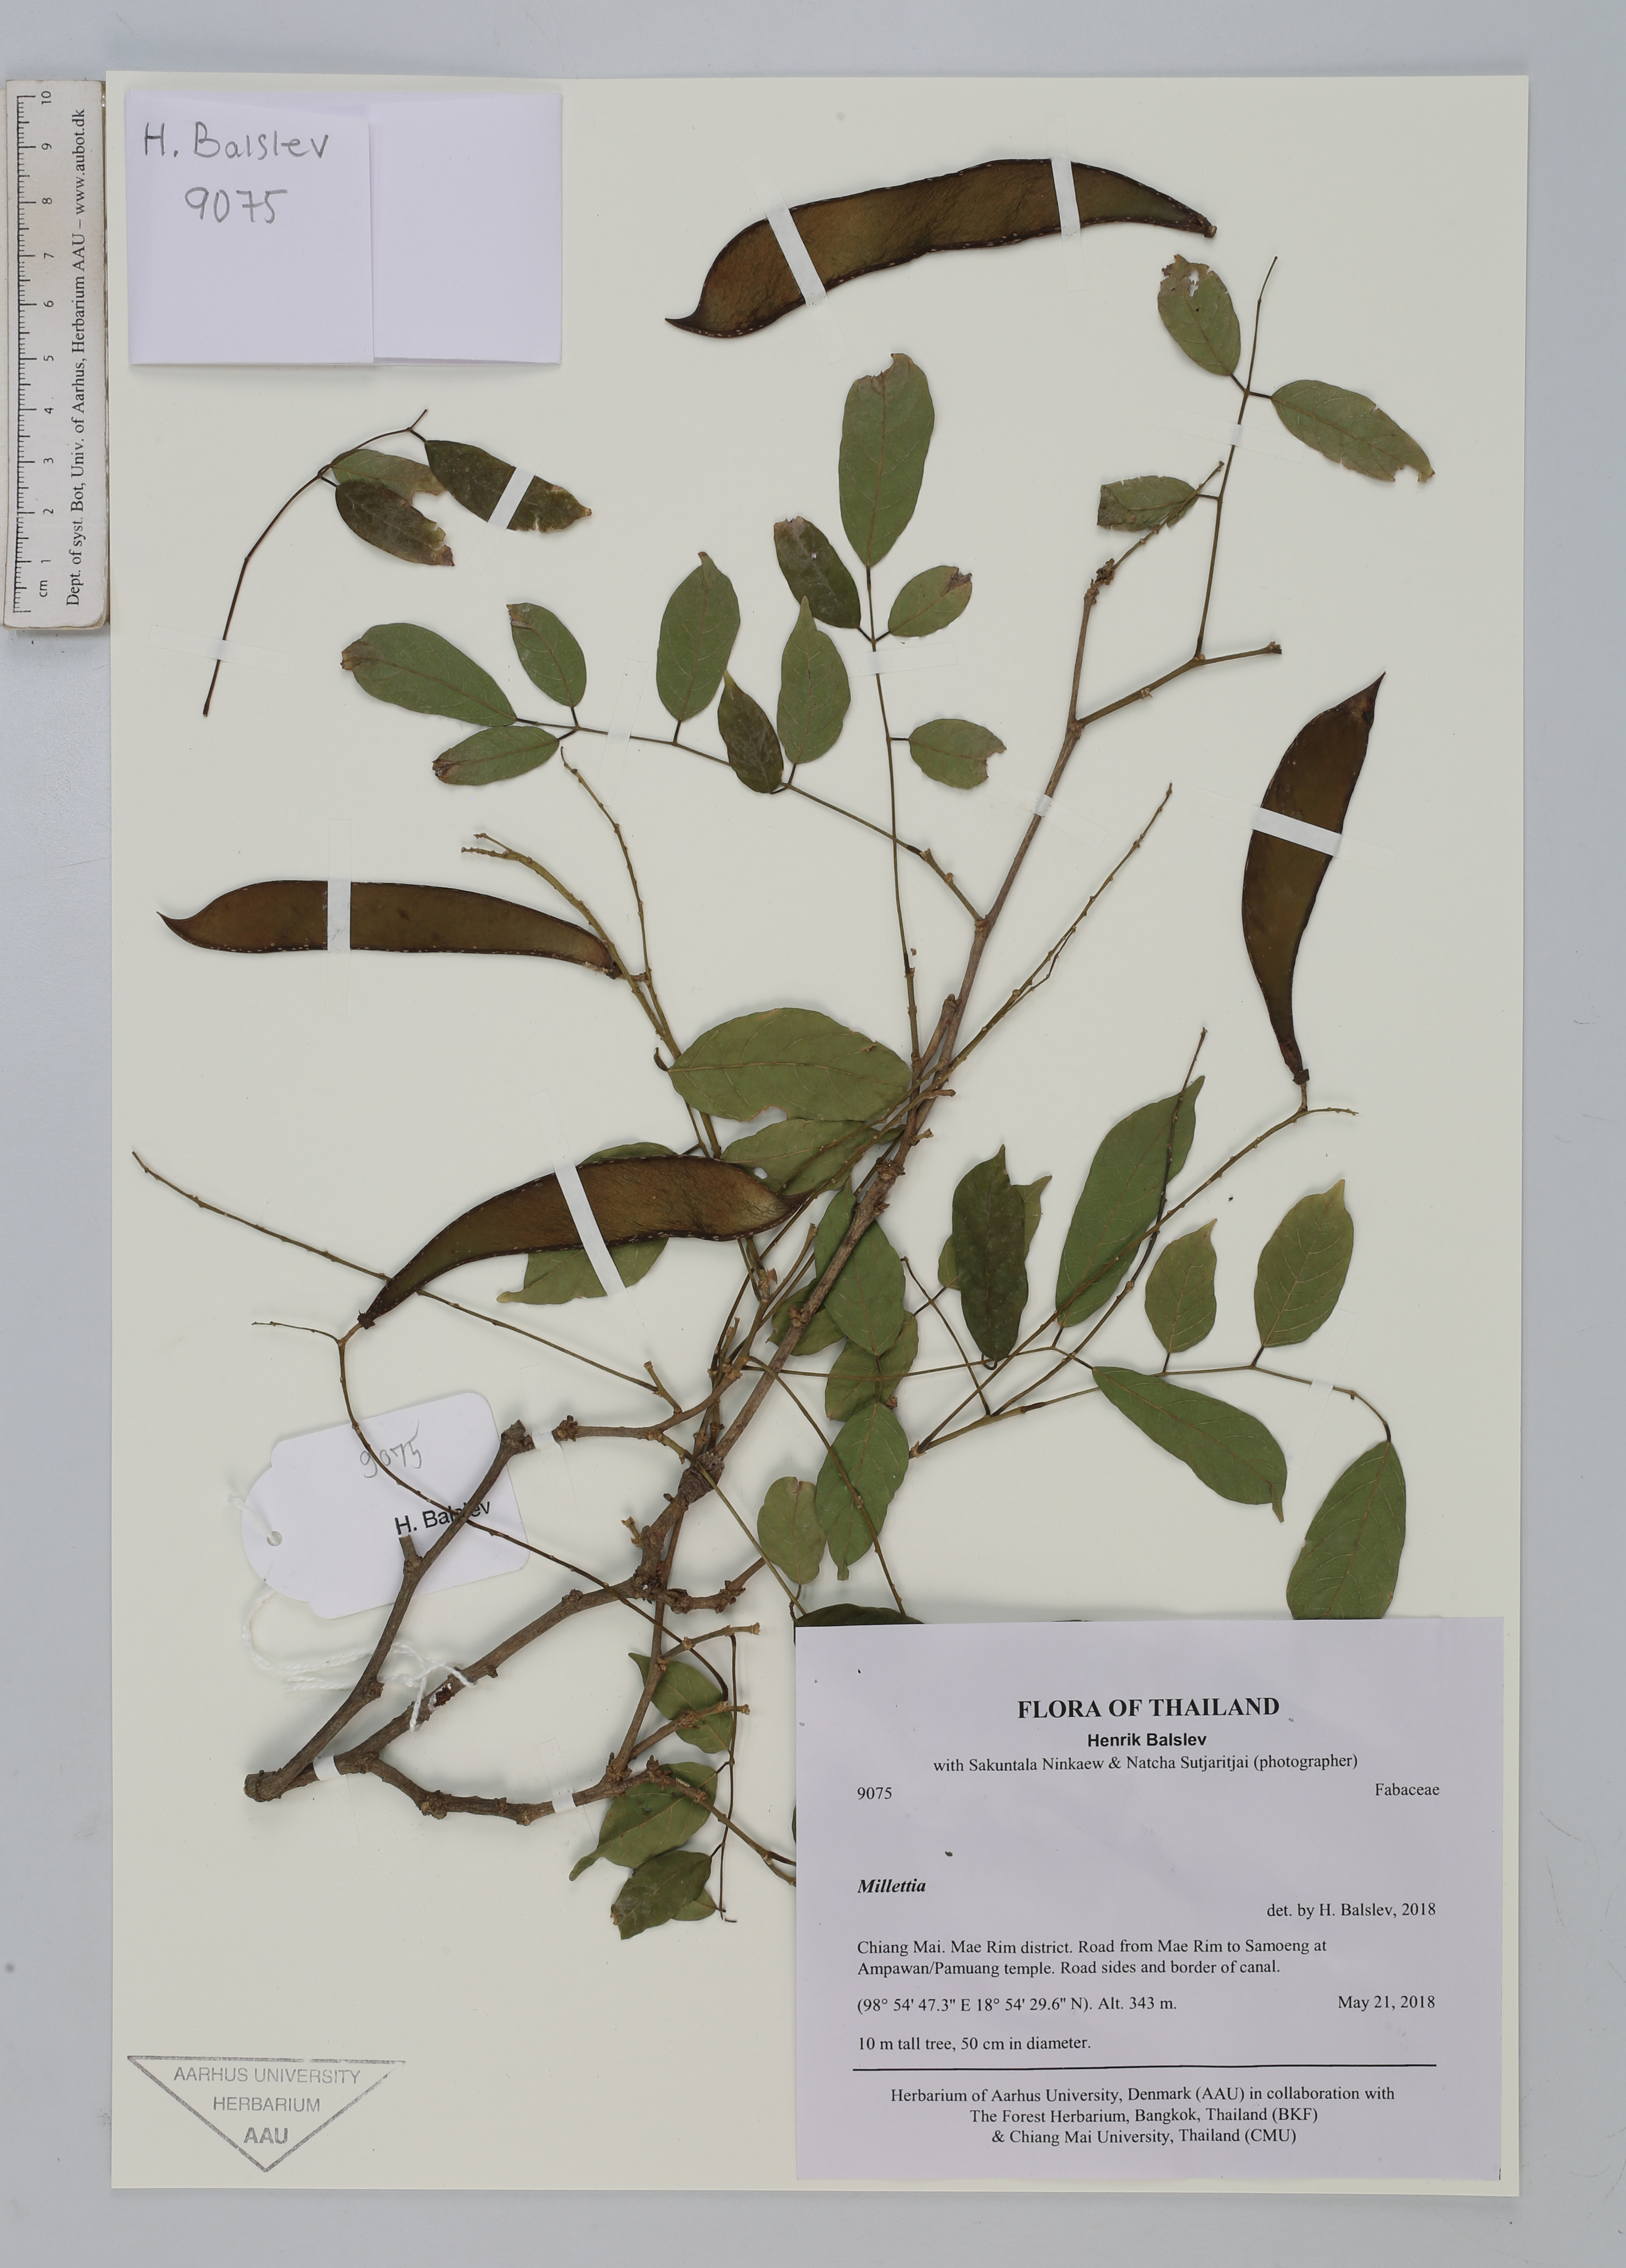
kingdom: Plantae
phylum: Tracheophyta
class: Magnoliopsida
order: Fabales
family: Fabaceae
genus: Millettia
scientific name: Millettia xylocarpa
